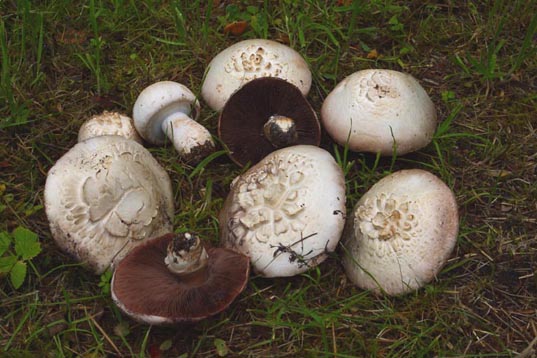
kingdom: Fungi
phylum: Basidiomycota
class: Agaricomycetes
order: Agaricales
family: Agaricaceae
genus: Agaricus
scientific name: Agaricus litoralis
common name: kyst-champignon
